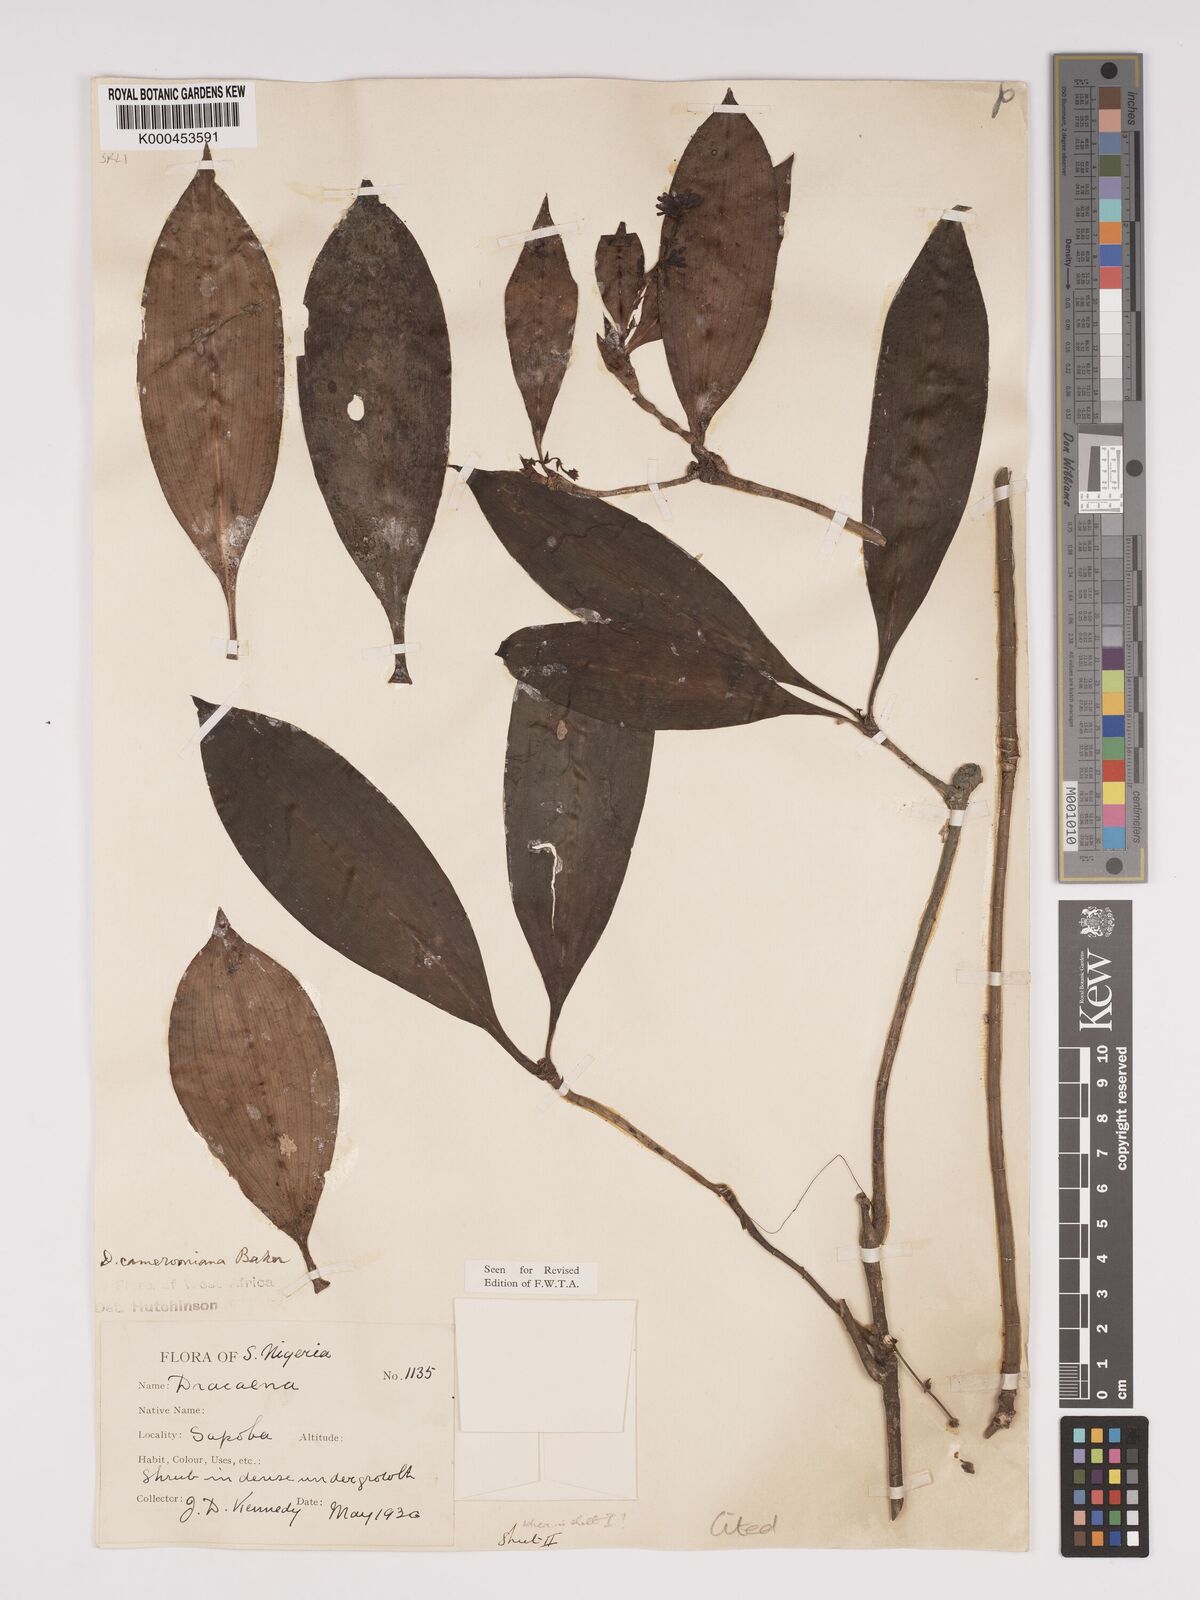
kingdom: Plantae
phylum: Tracheophyta
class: Liliopsida
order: Asparagales
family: Asparagaceae
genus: Dracaena
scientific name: Dracaena camerooniana
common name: Dragon tree
